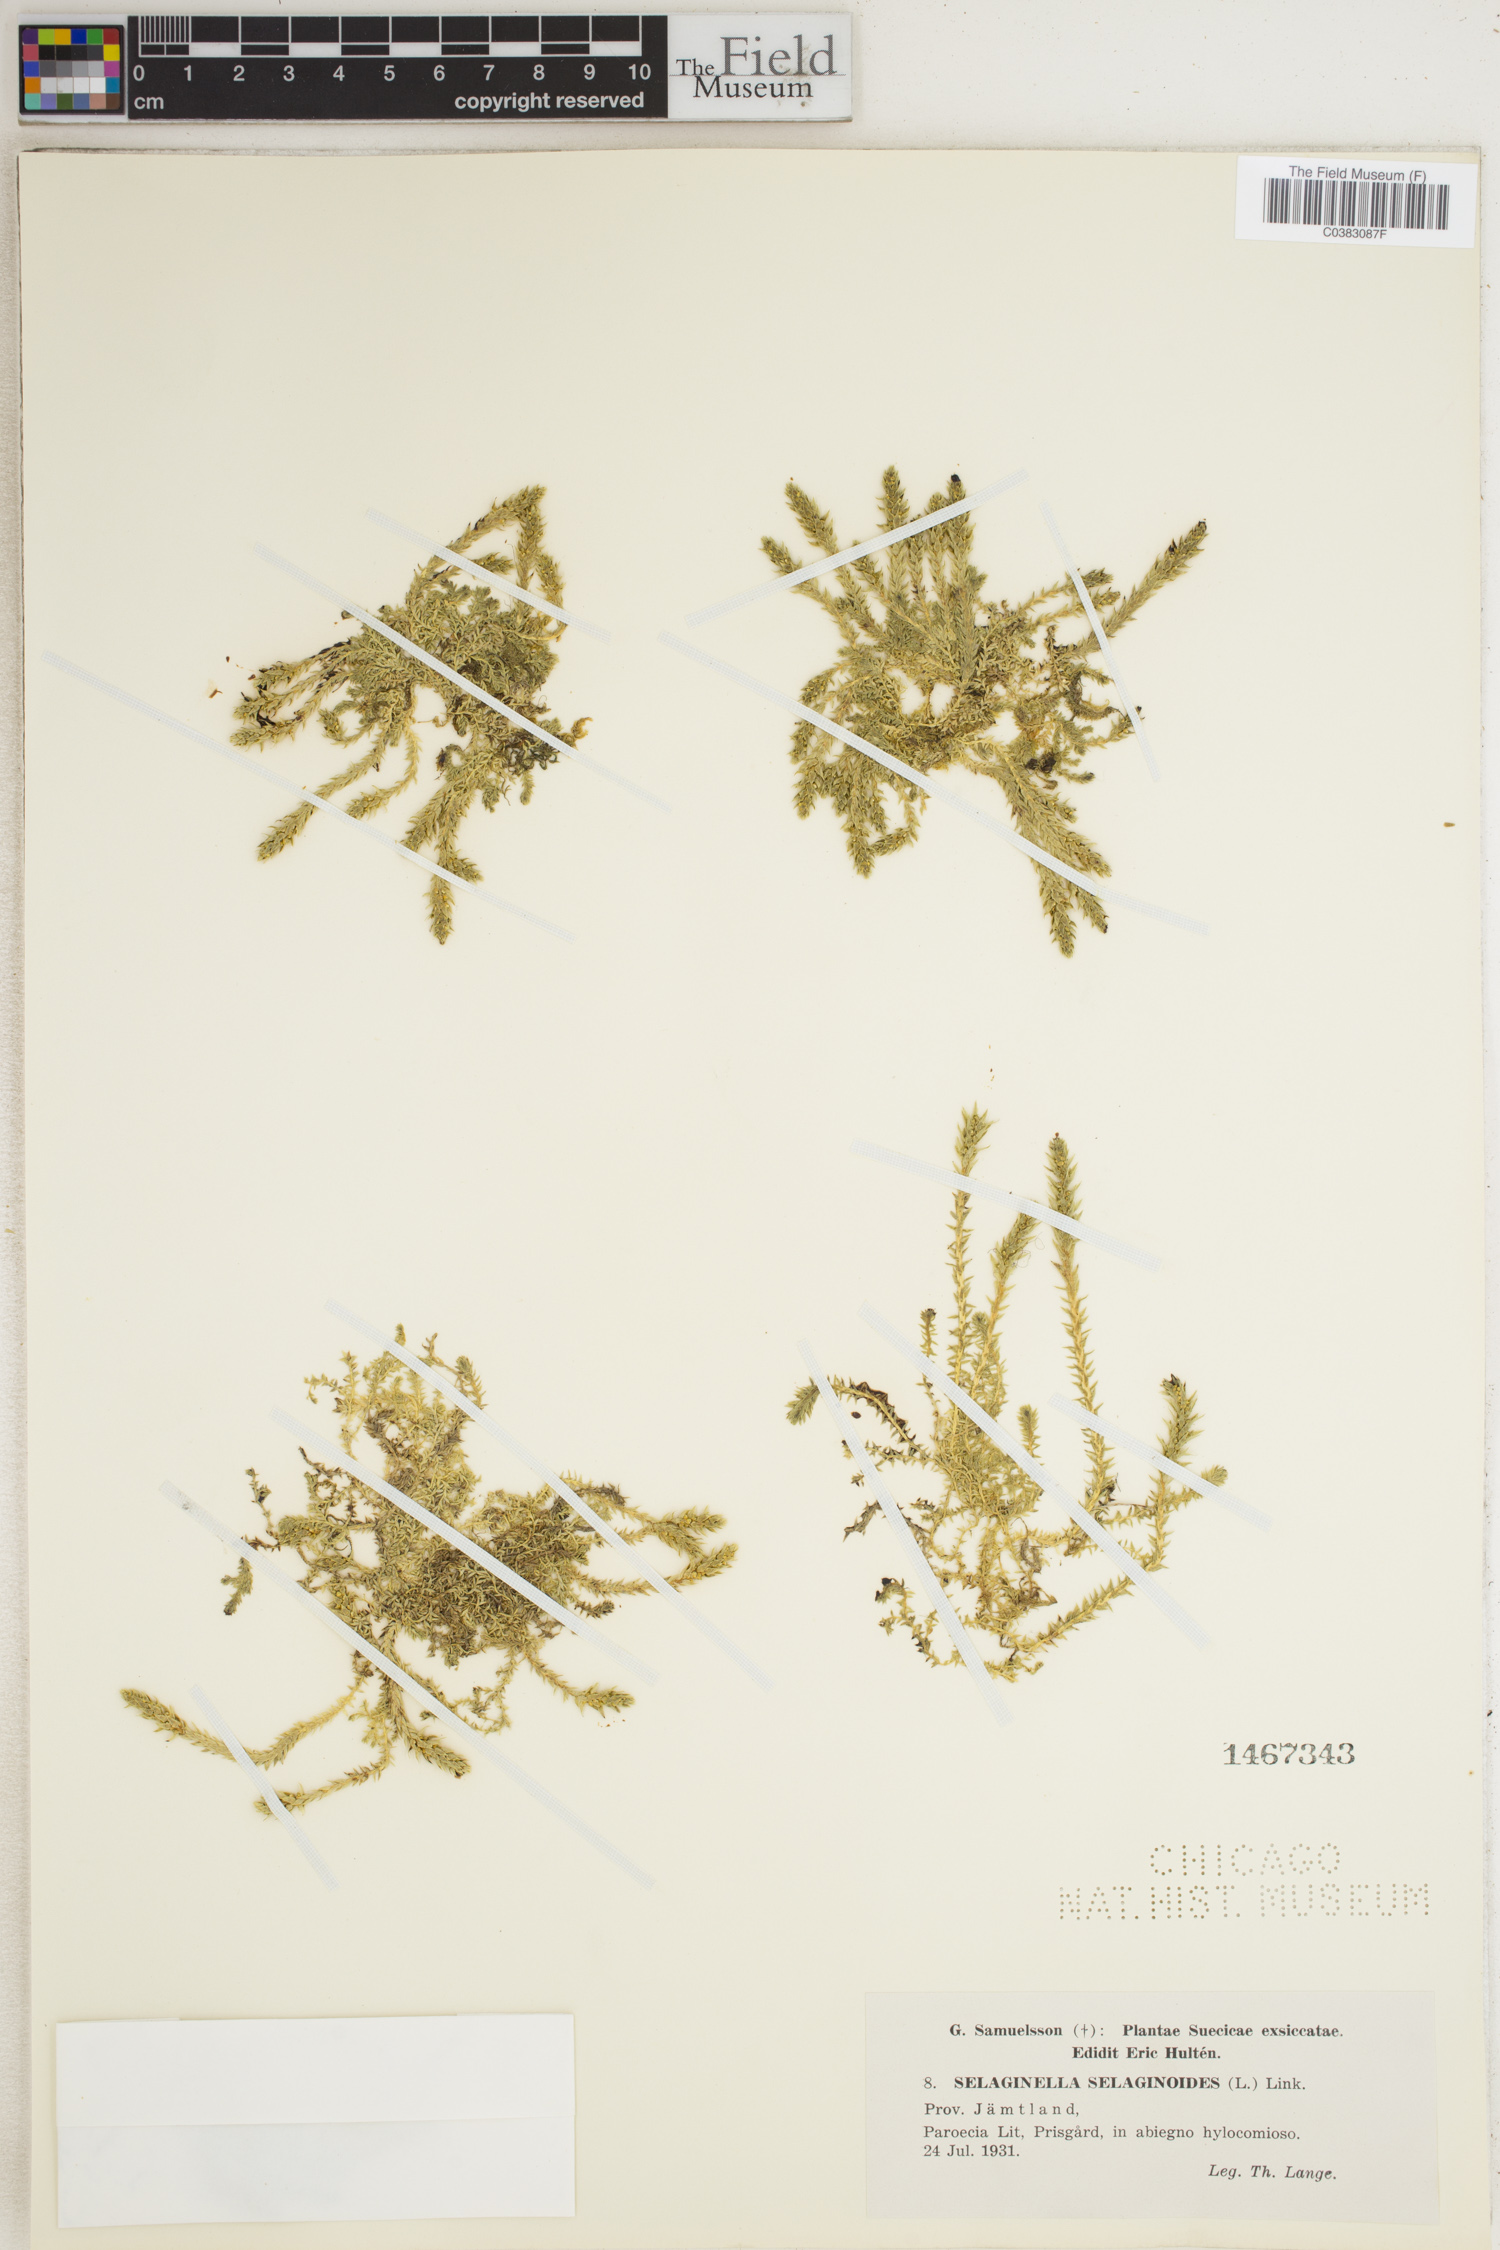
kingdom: Plantae
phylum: Tracheophyta
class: Lycopodiopsida
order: Selaginellales
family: Selaginellaceae
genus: Selaginella
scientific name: Selaginella selaginoides
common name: Prickly mountain-moss
